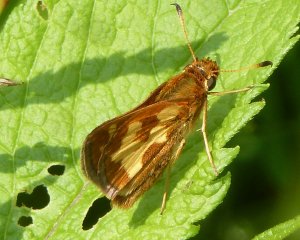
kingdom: Animalia
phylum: Arthropoda
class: Insecta
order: Lepidoptera
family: Hesperiidae
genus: Polites
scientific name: Polites coras
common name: Peck's Skipper
